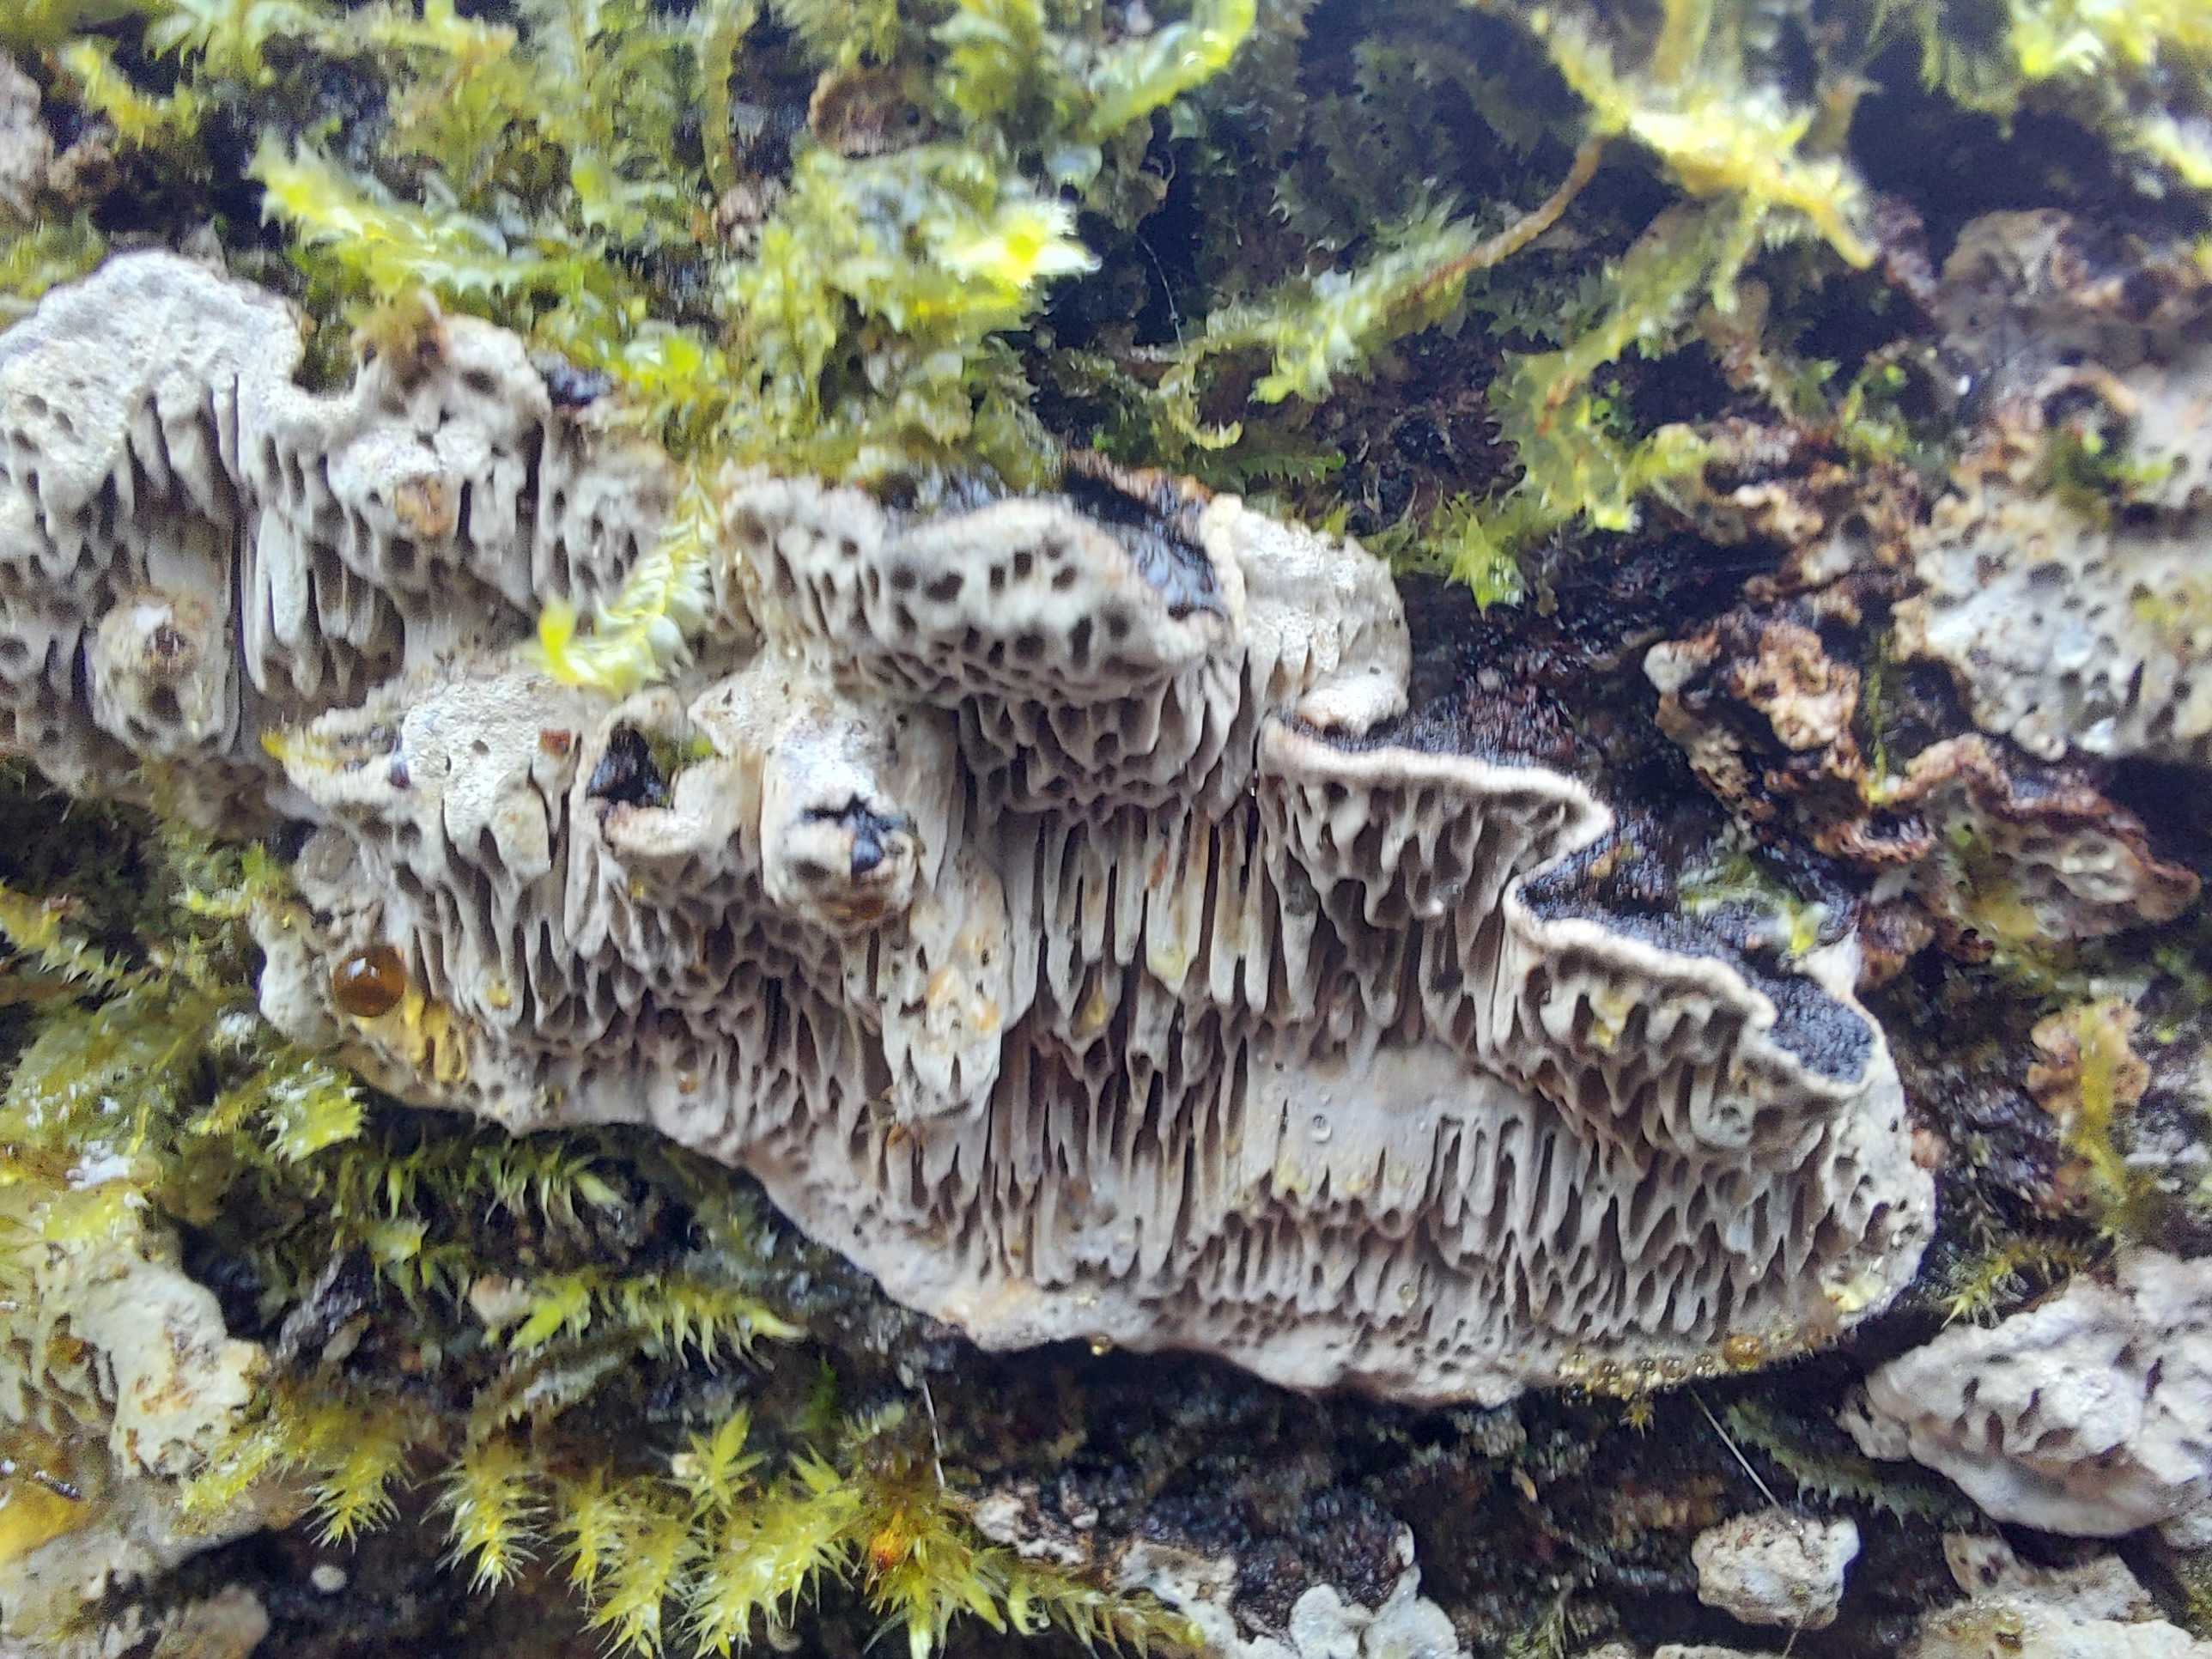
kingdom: Fungi
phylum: Basidiomycota
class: Agaricomycetes
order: Polyporales
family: Polyporaceae
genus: Podofomes
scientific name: Podofomes mollis
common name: blød begporesvamp
